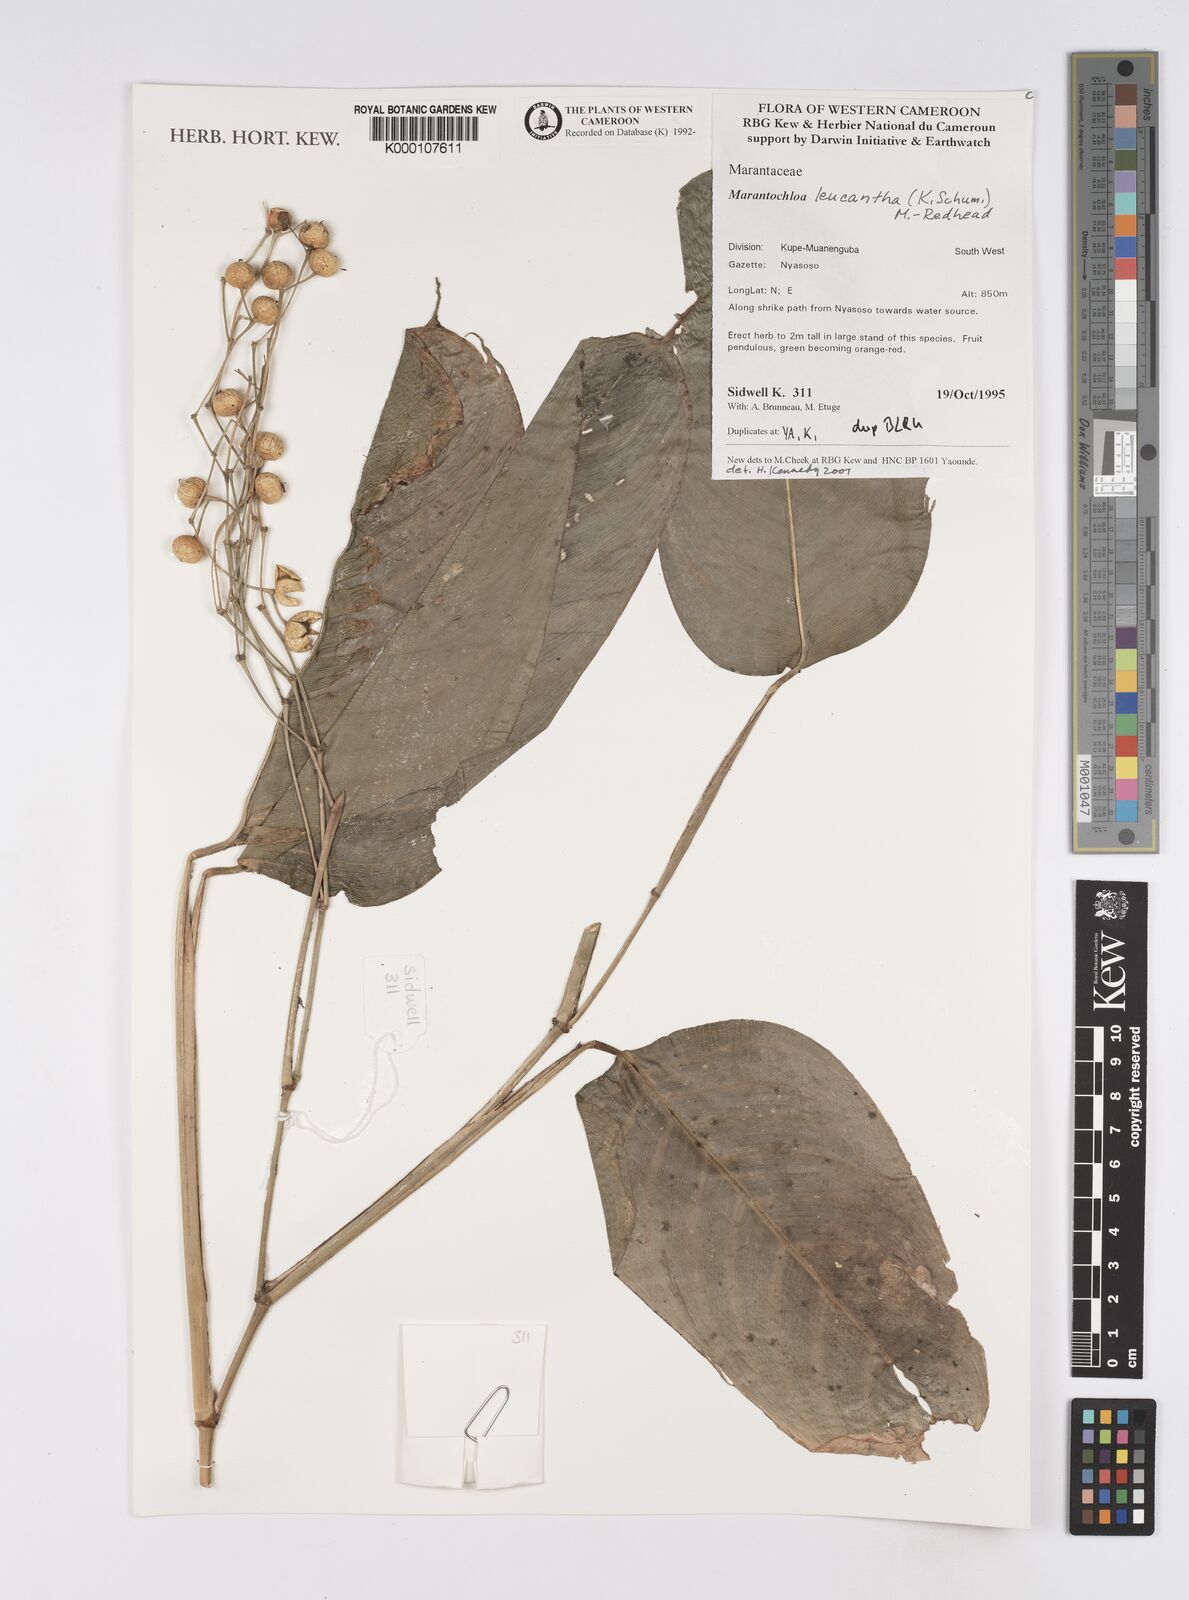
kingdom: Plantae
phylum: Tracheophyta
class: Liliopsida
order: Zingiberales
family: Marantaceae
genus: Marantochloa
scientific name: Marantochloa leucantha
